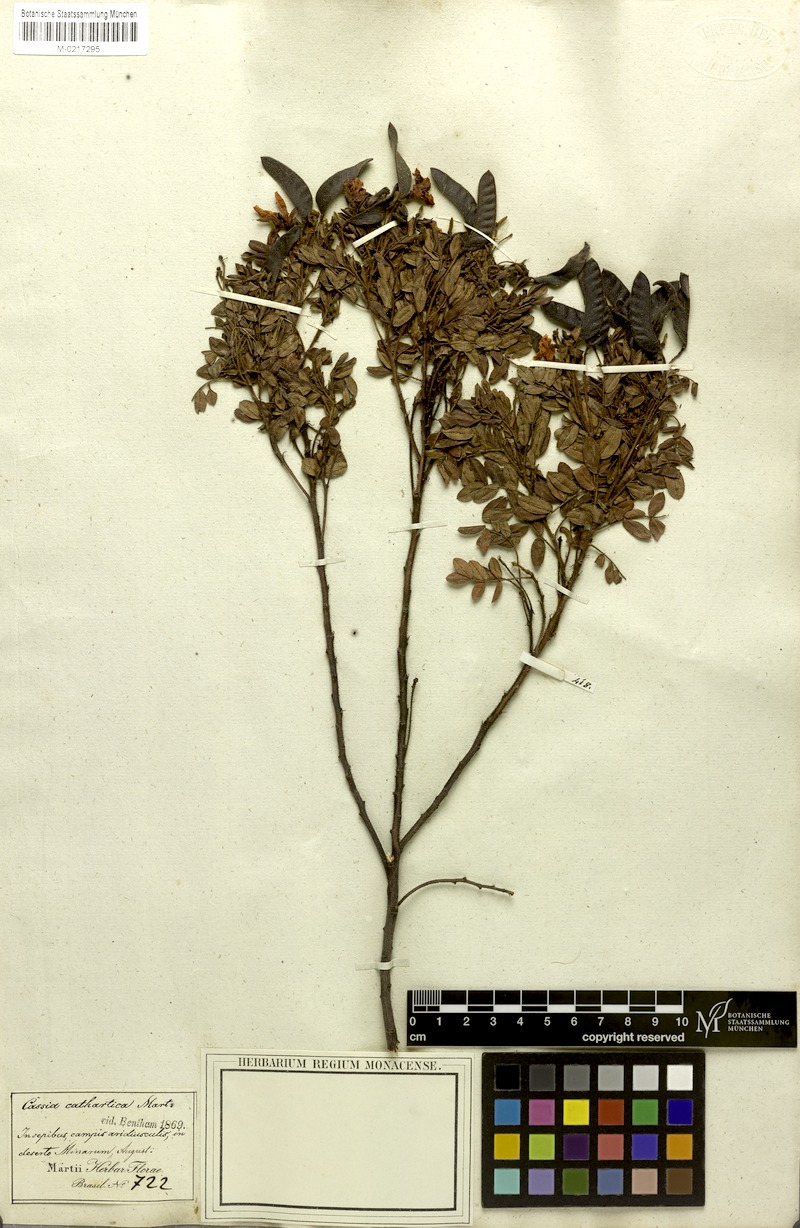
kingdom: Plantae
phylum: Tracheophyta
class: Magnoliopsida
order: Fabales
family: Fabaceae
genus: Chamaecrista
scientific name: Chamaecrista cathartica
